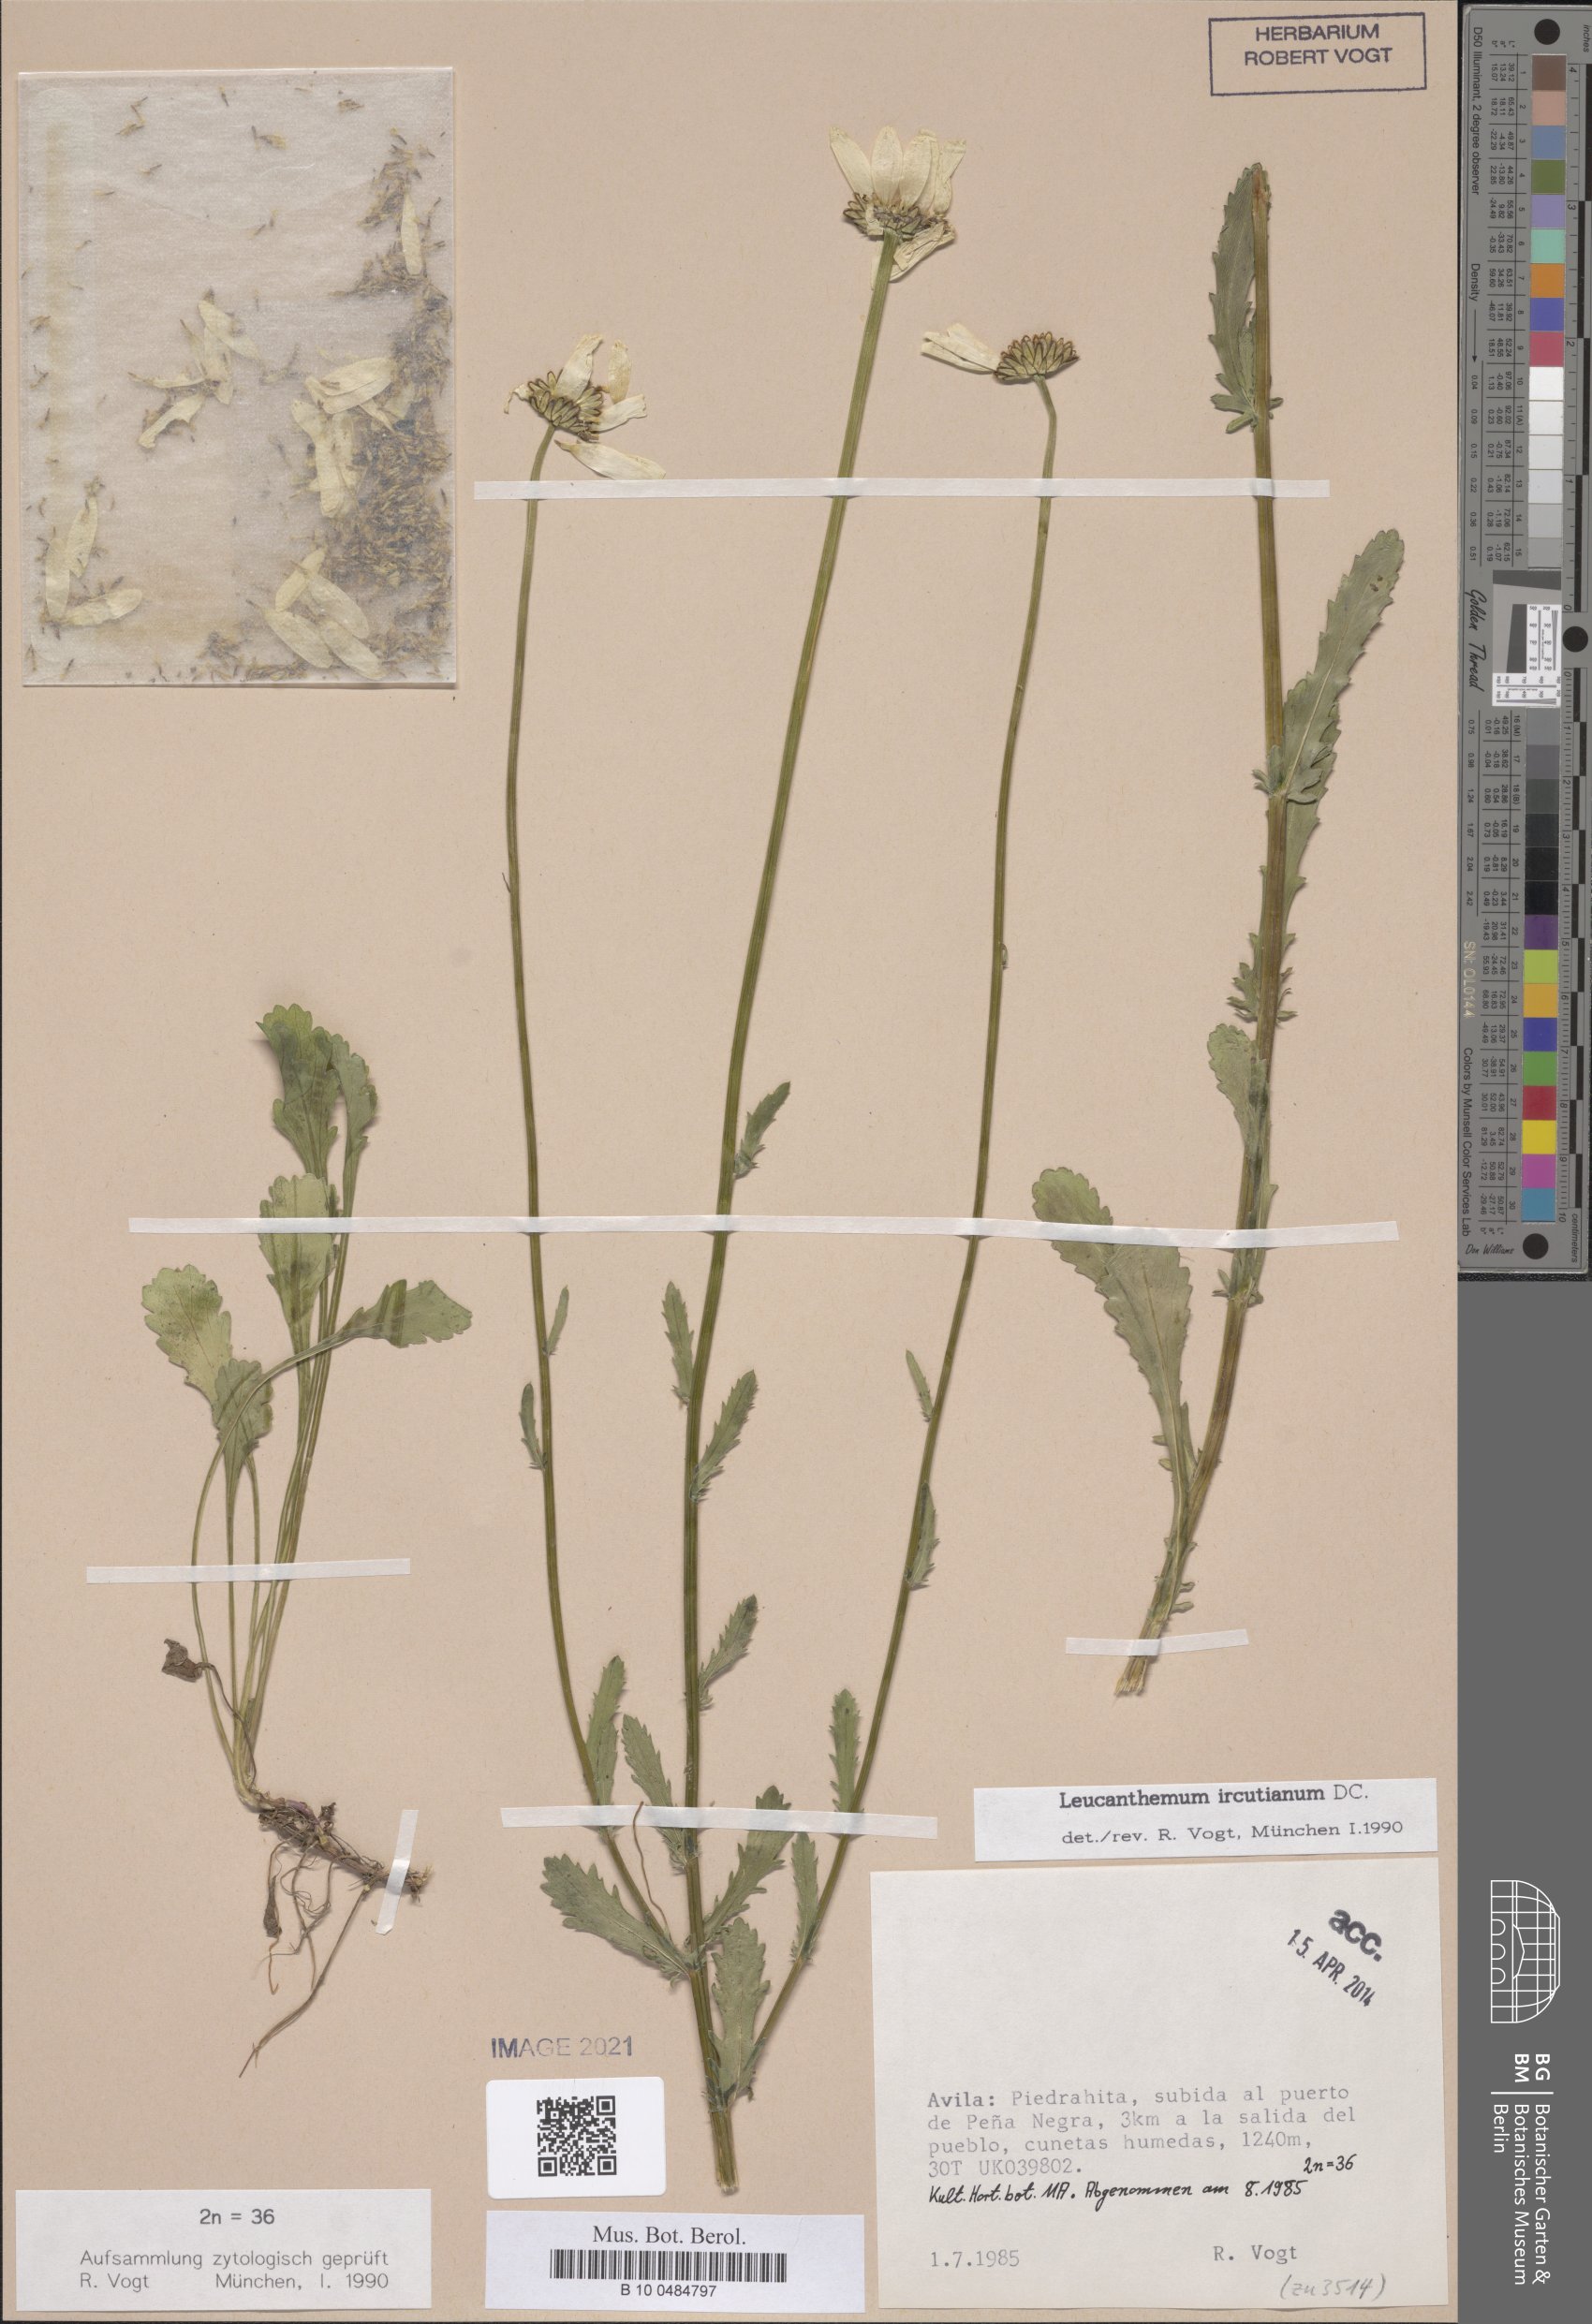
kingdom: Plantae
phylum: Tracheophyta
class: Magnoliopsida
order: Asterales
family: Asteraceae
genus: Leucanthemum
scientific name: Leucanthemum ircutianum
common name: Daisy
